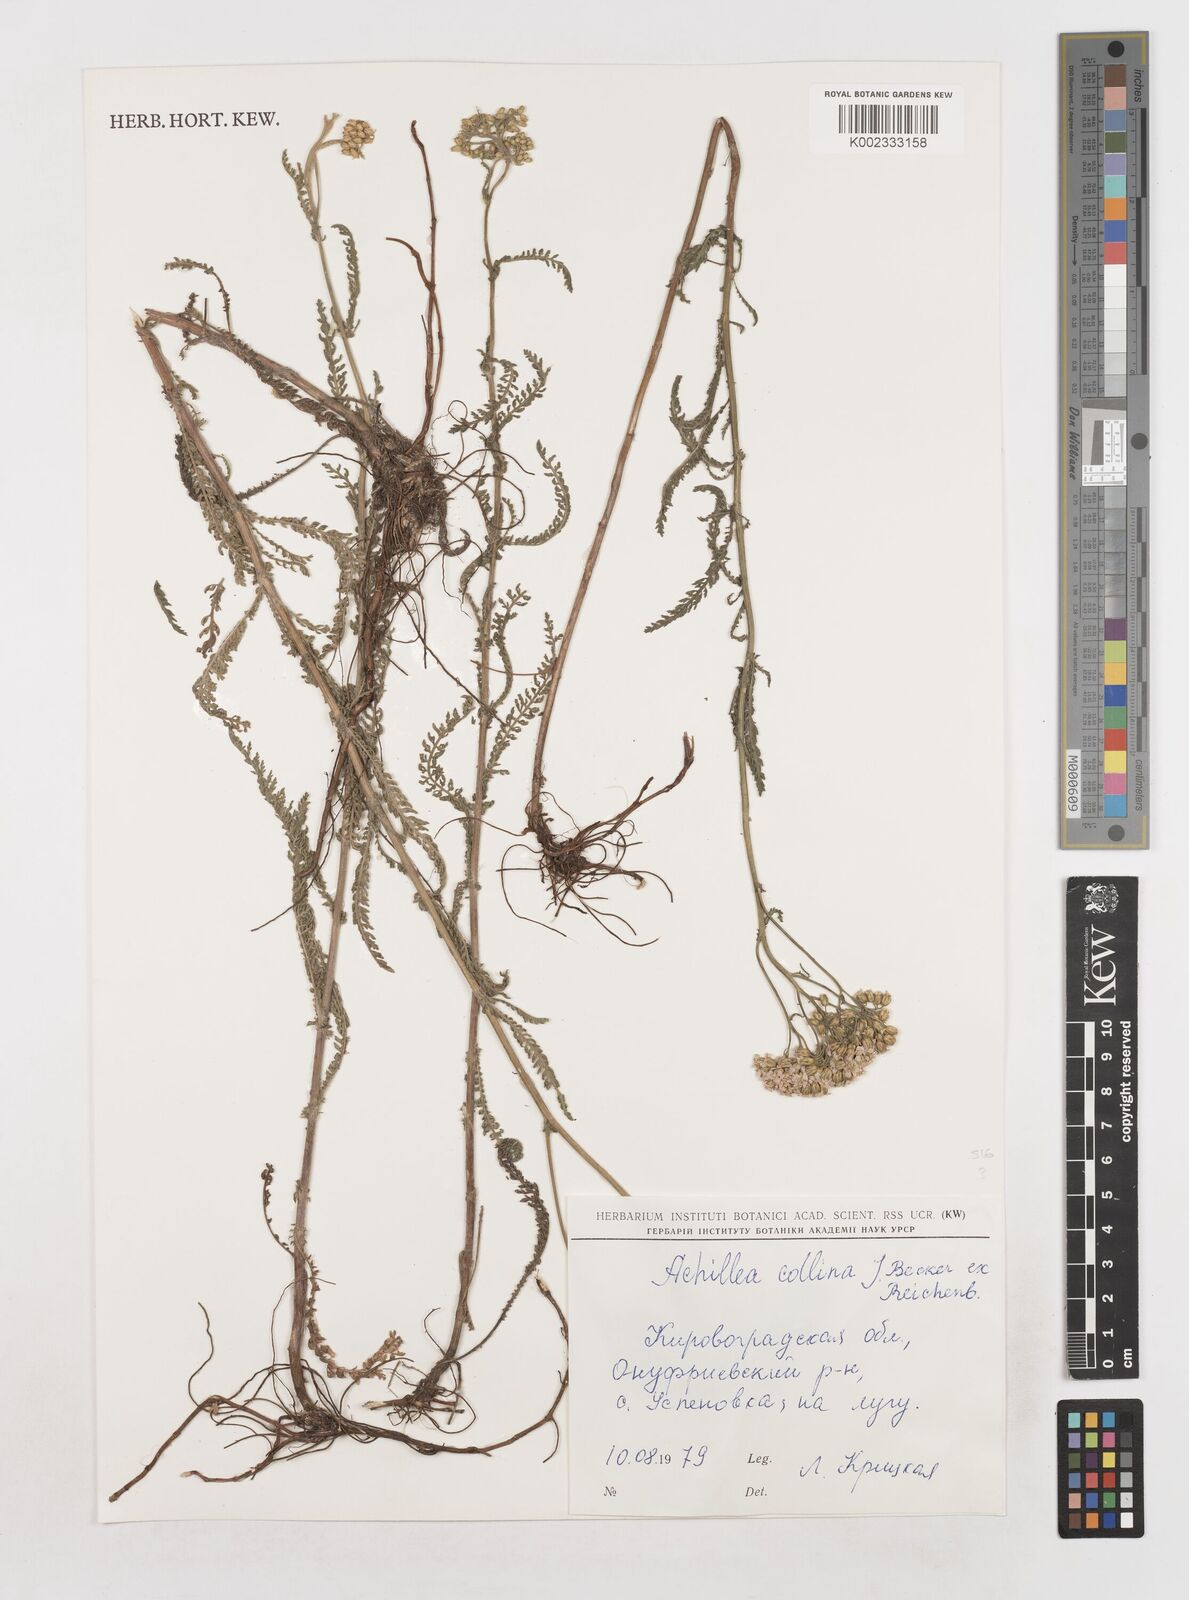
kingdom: Plantae
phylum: Tracheophyta
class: Magnoliopsida
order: Asterales
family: Asteraceae
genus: Achillea
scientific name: Achillea collina
